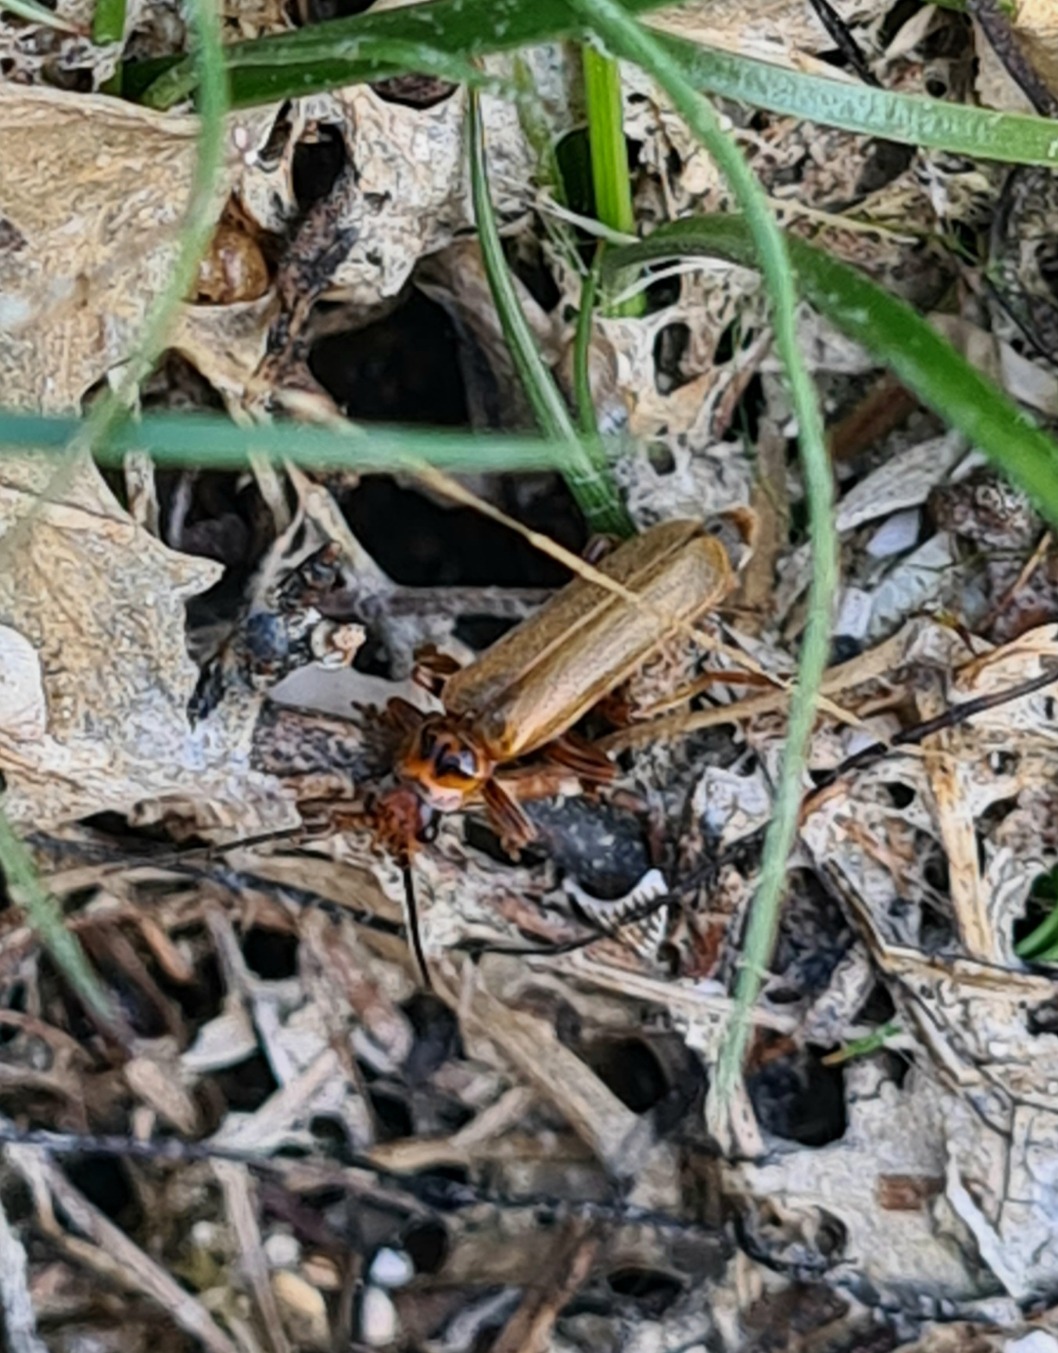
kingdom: Animalia
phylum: Arthropoda
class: Insecta
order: Coleoptera
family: Cantharidae
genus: Cantharis
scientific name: Cantharis figurata
